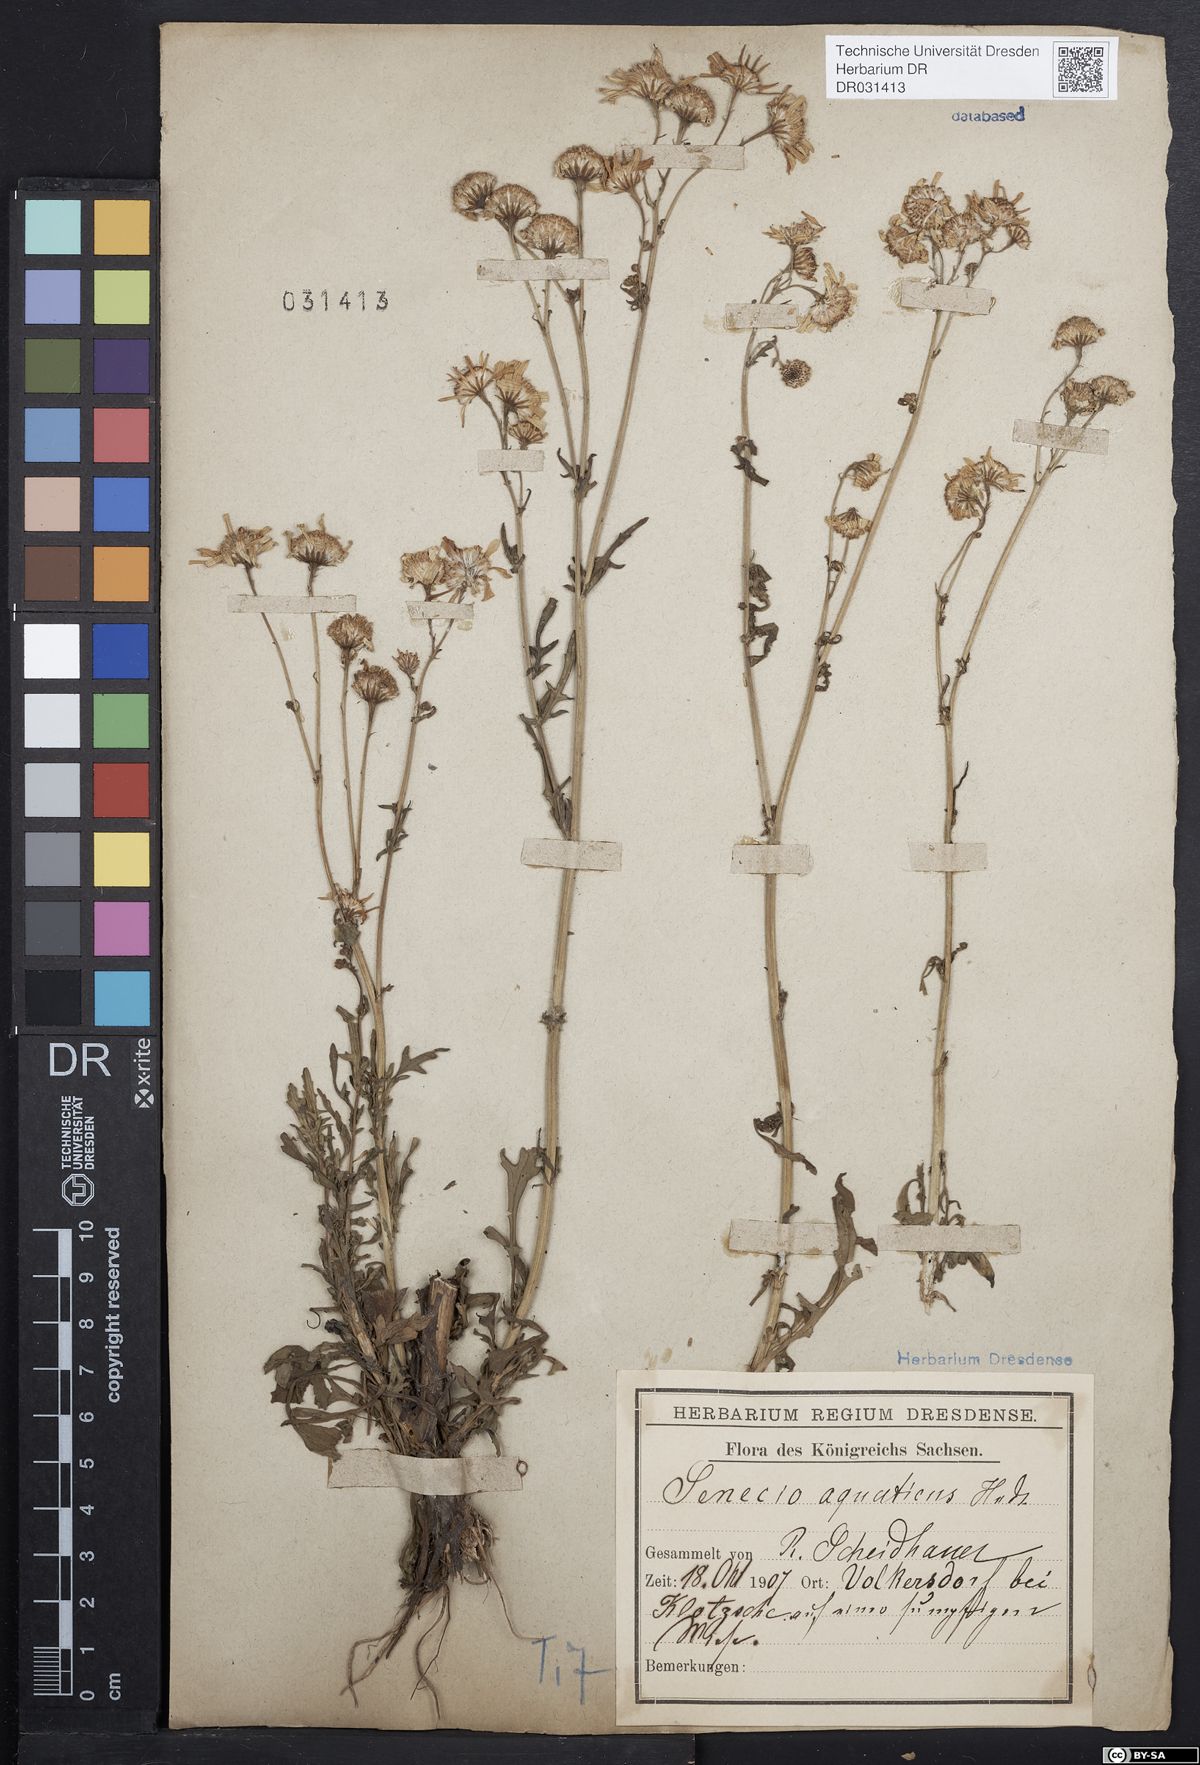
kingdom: Plantae
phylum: Tracheophyta
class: Magnoliopsida
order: Asterales
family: Asteraceae
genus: Jacobaea
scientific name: Jacobaea aquatica
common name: Water ragwort
